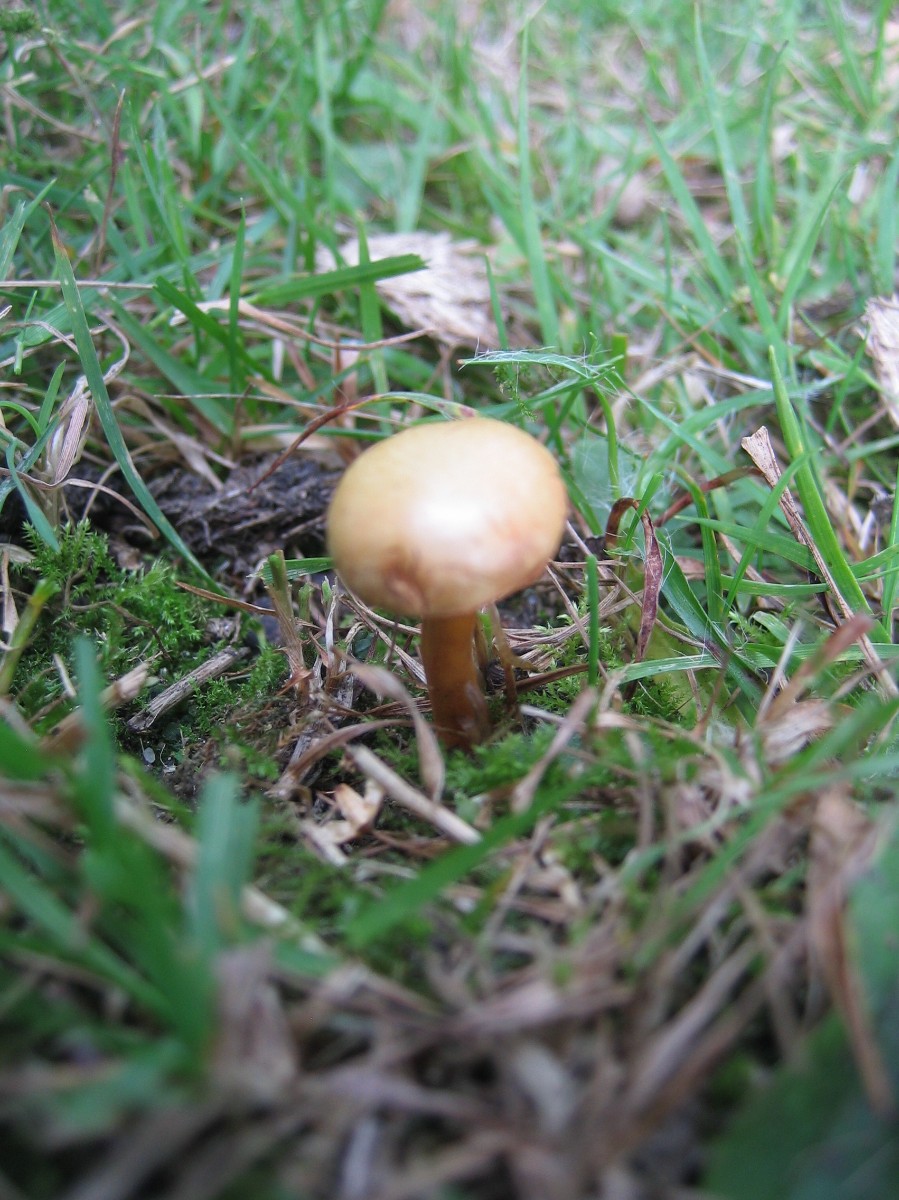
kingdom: Fungi
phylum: Basidiomycota
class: Agaricomycetes
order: Boletales
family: Boletaceae
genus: Chalciporus
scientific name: Chalciporus piperatus
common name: peberrørhat
